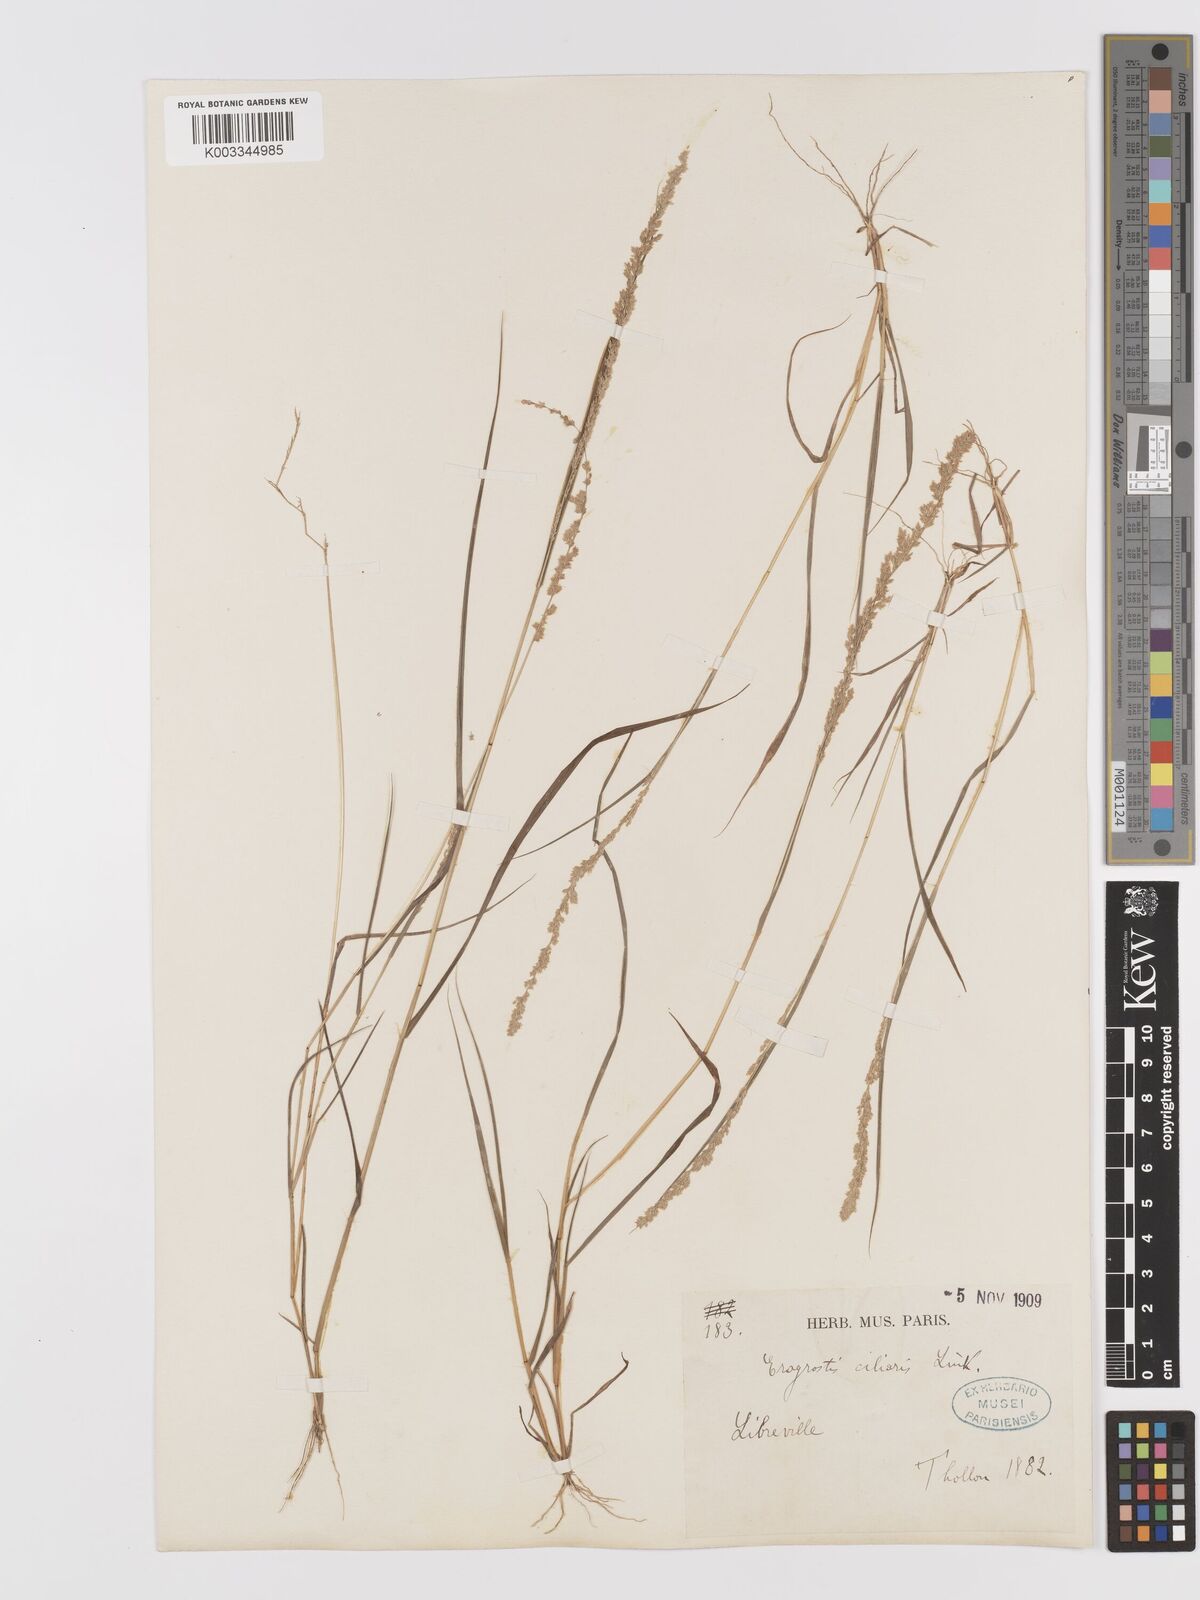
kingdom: Plantae
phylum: Tracheophyta
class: Liliopsida
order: Poales
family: Poaceae
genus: Eragrostis
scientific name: Eragrostis ciliaris
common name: Gophertail lovegrass
